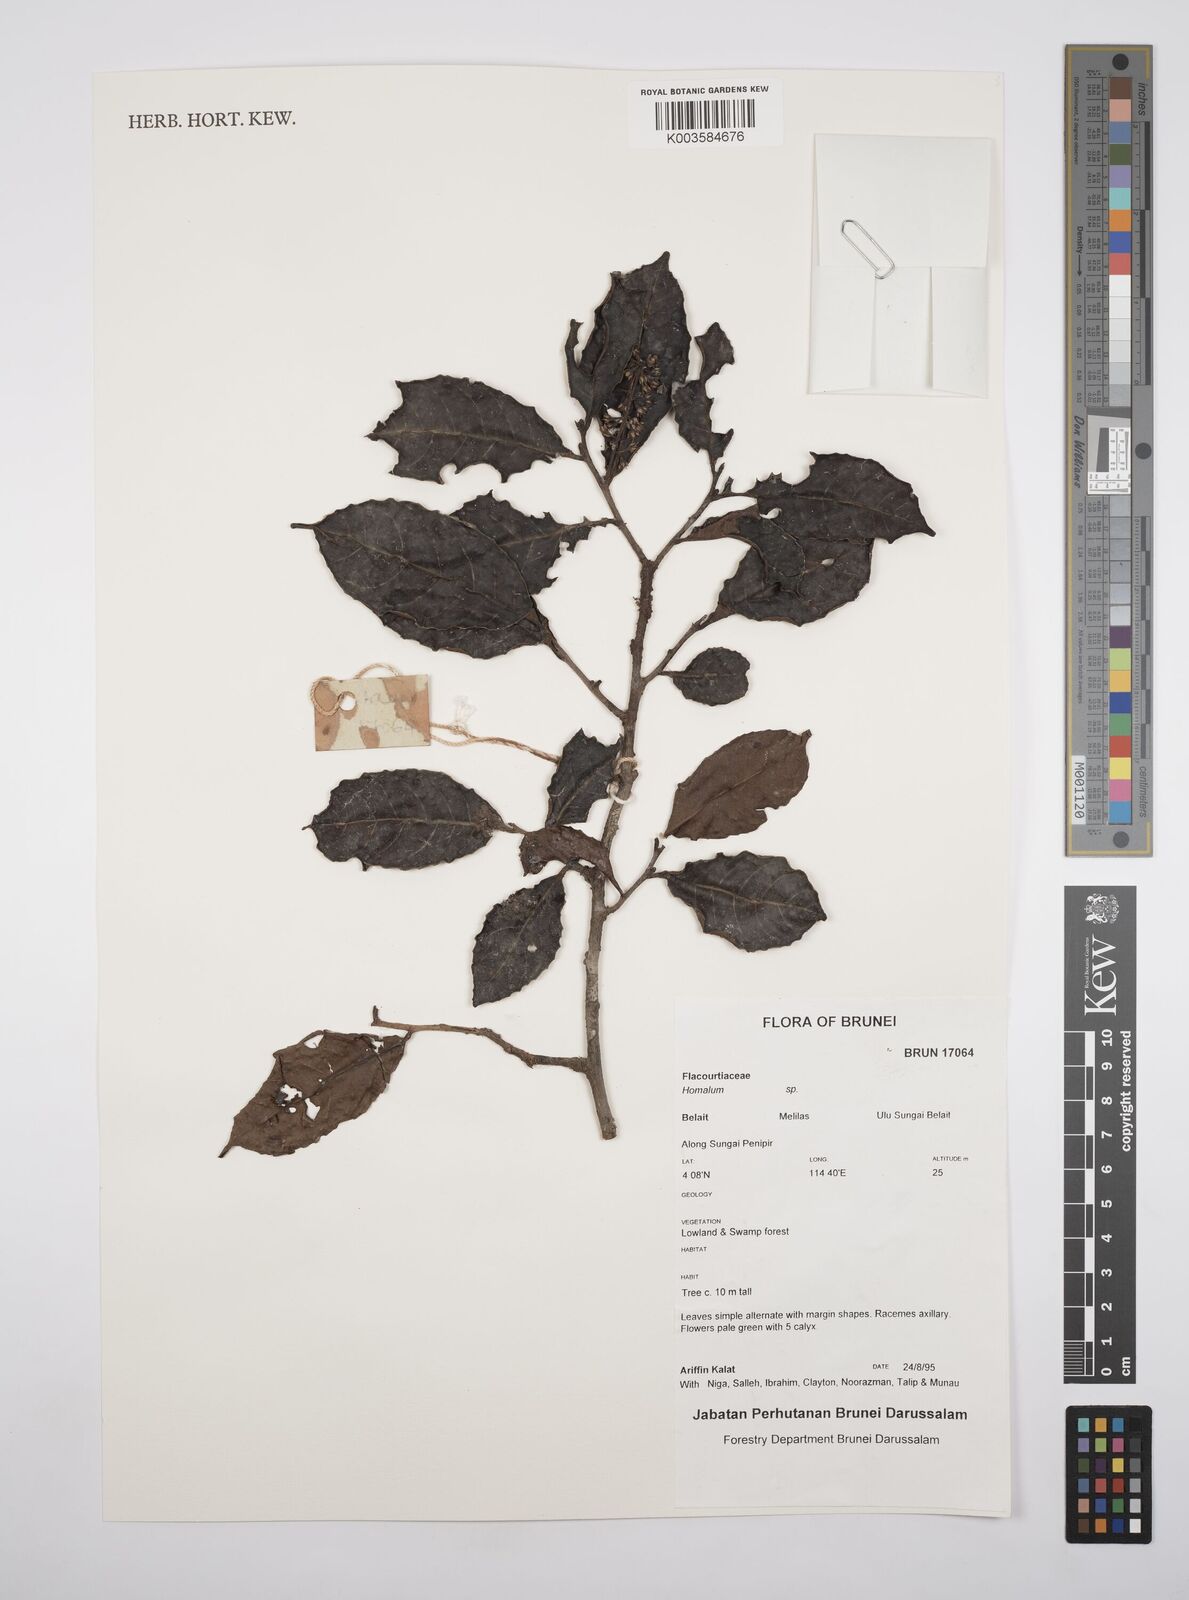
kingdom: Plantae
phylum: Tracheophyta
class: Magnoliopsida
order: Malpighiales
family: Salicaceae
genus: Homalium
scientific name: Homalium
